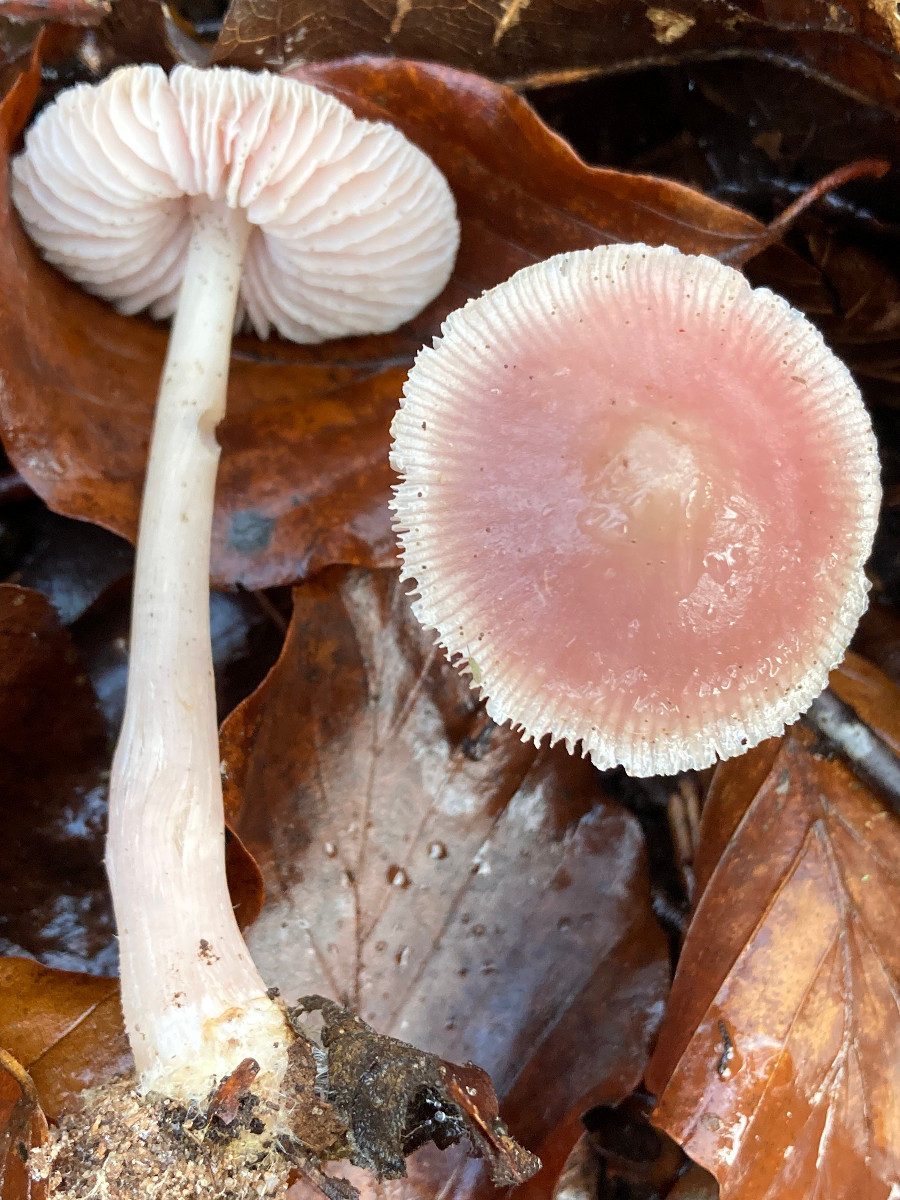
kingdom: Fungi
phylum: Basidiomycota
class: Agaricomycetes
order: Agaricales
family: Mycenaceae
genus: Mycena
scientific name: Mycena rosea
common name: rosa huesvamp
